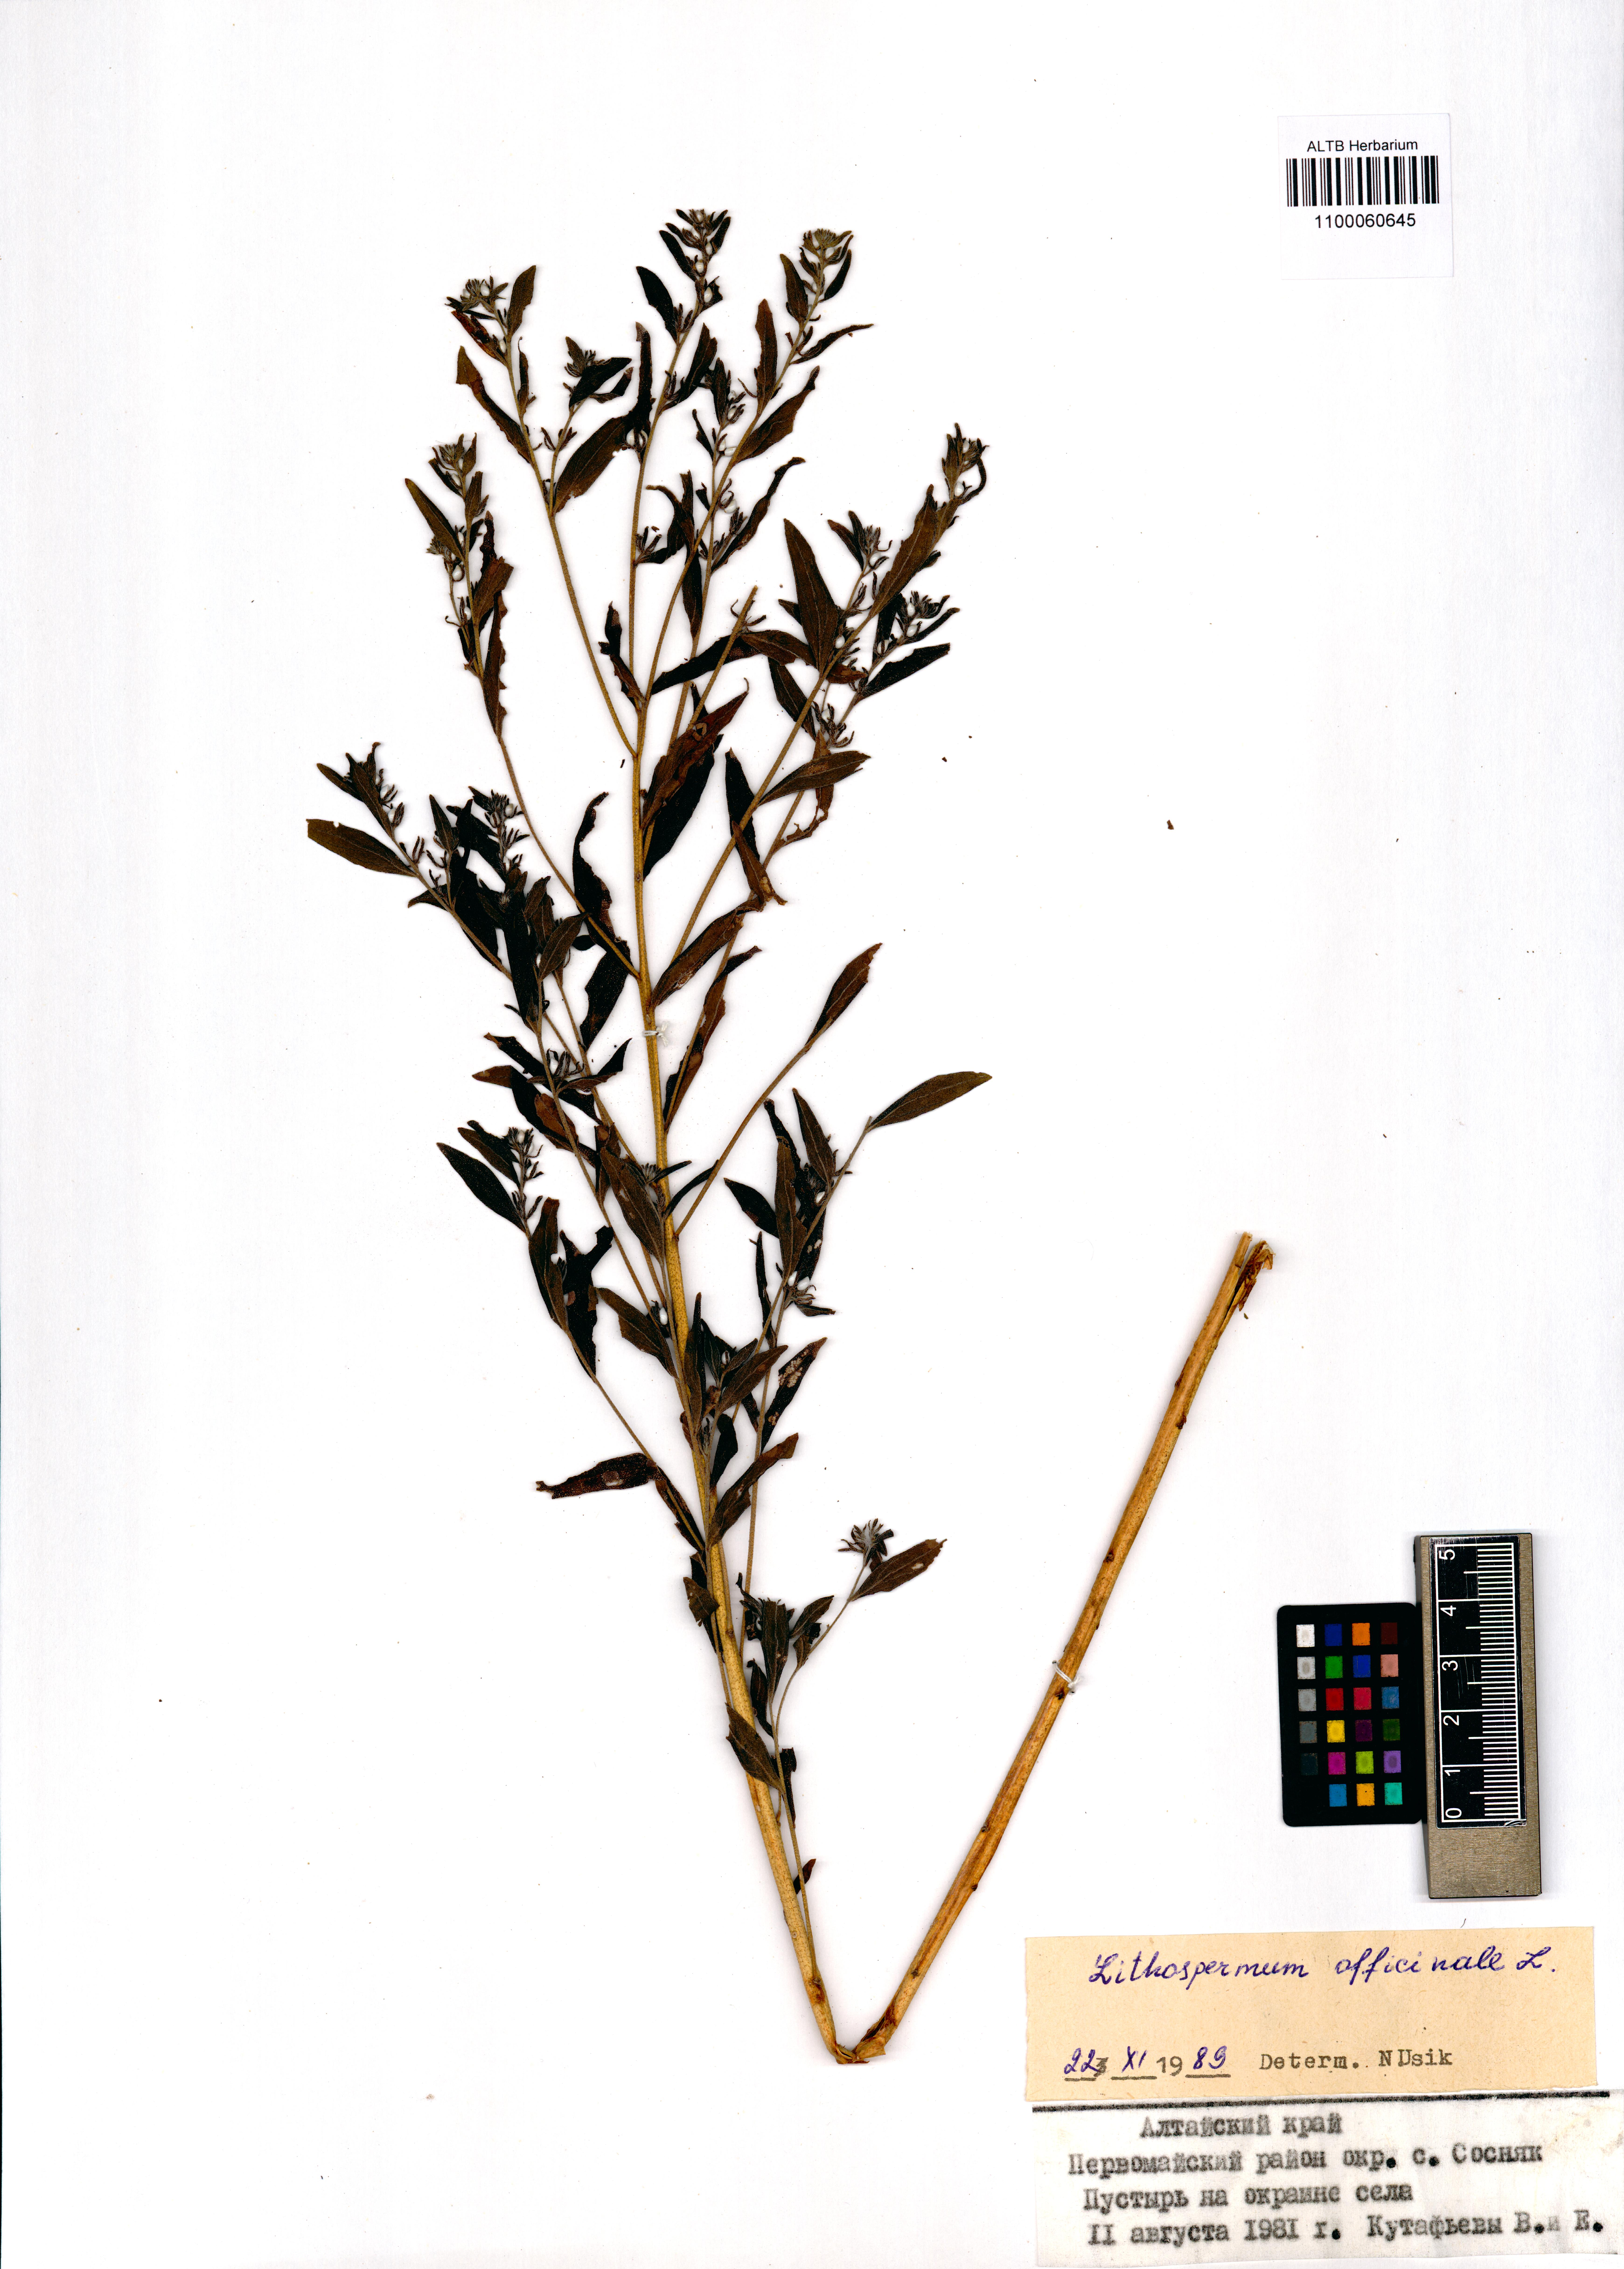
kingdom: Plantae
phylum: Tracheophyta
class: Magnoliopsida
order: Boraginales
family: Boraginaceae
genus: Lithospermum
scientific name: Lithospermum officinale
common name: Common gromwell
